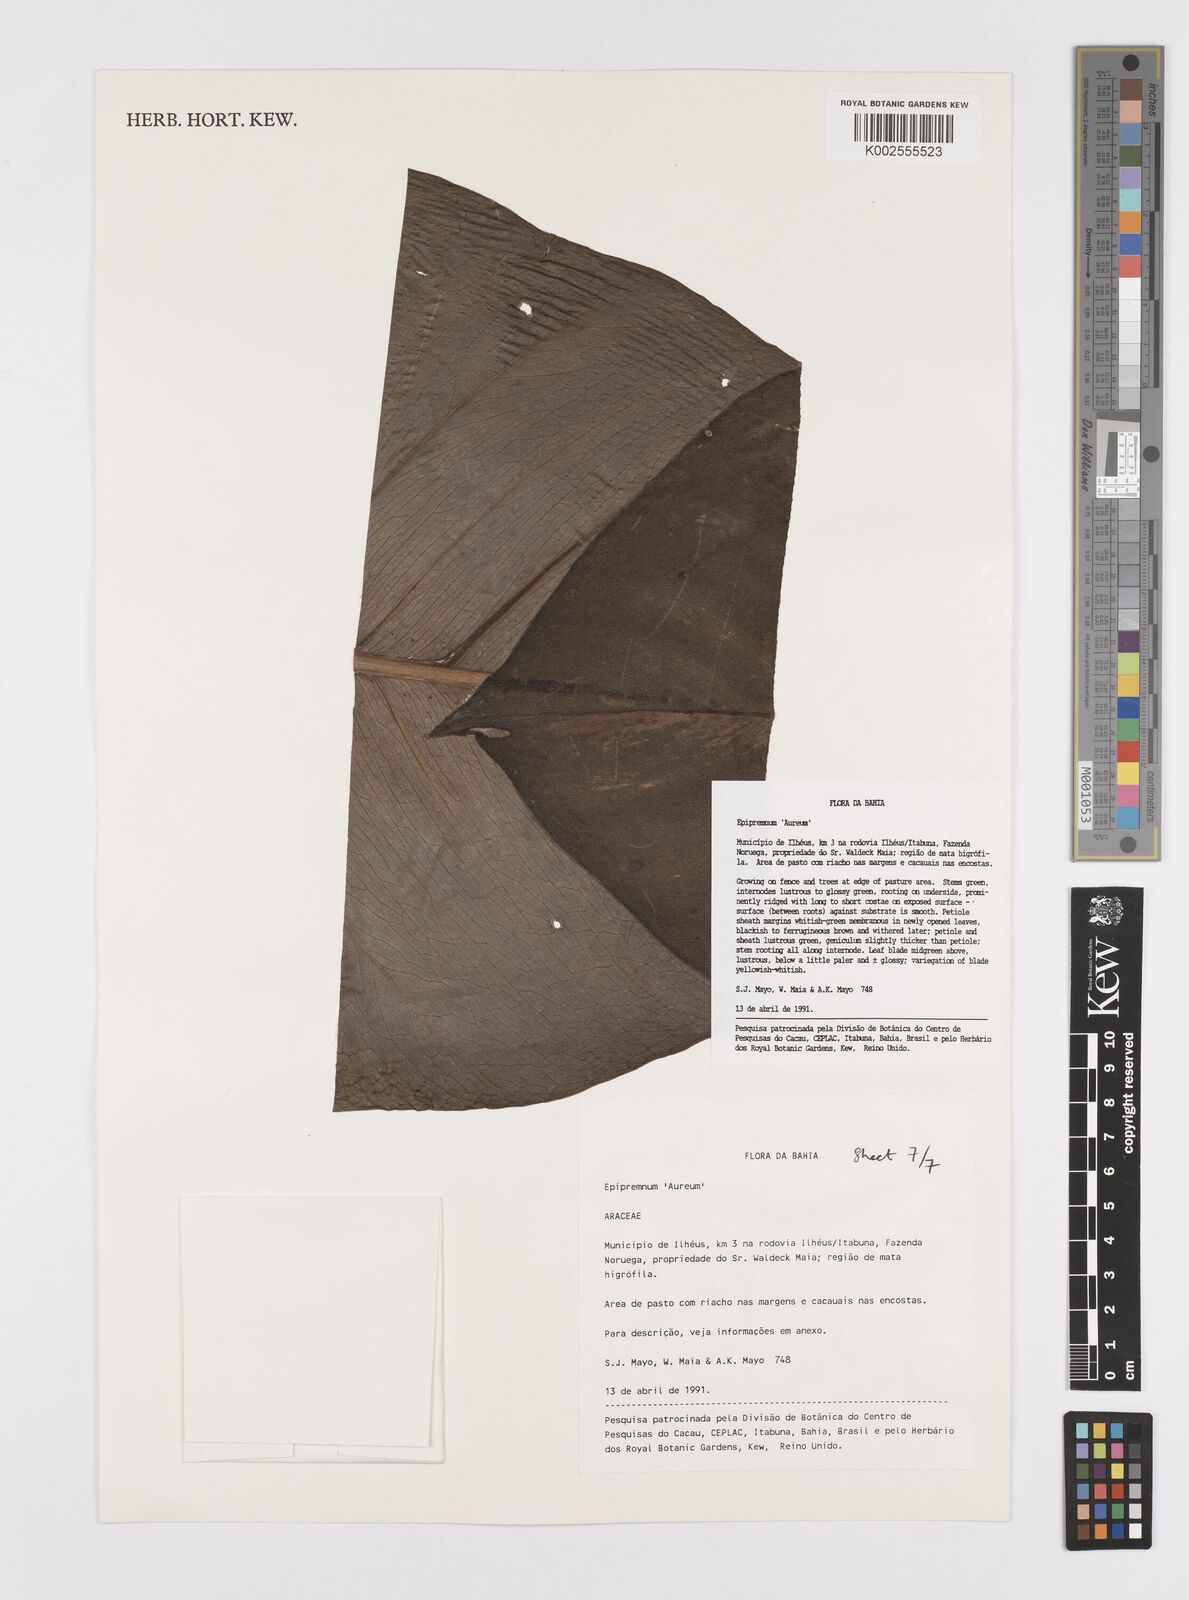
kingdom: Plantae
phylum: Tracheophyta
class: Liliopsida
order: Alismatales
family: Araceae
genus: Epipremnum
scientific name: Epipremnum aureum
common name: Golden hunter's-robe
